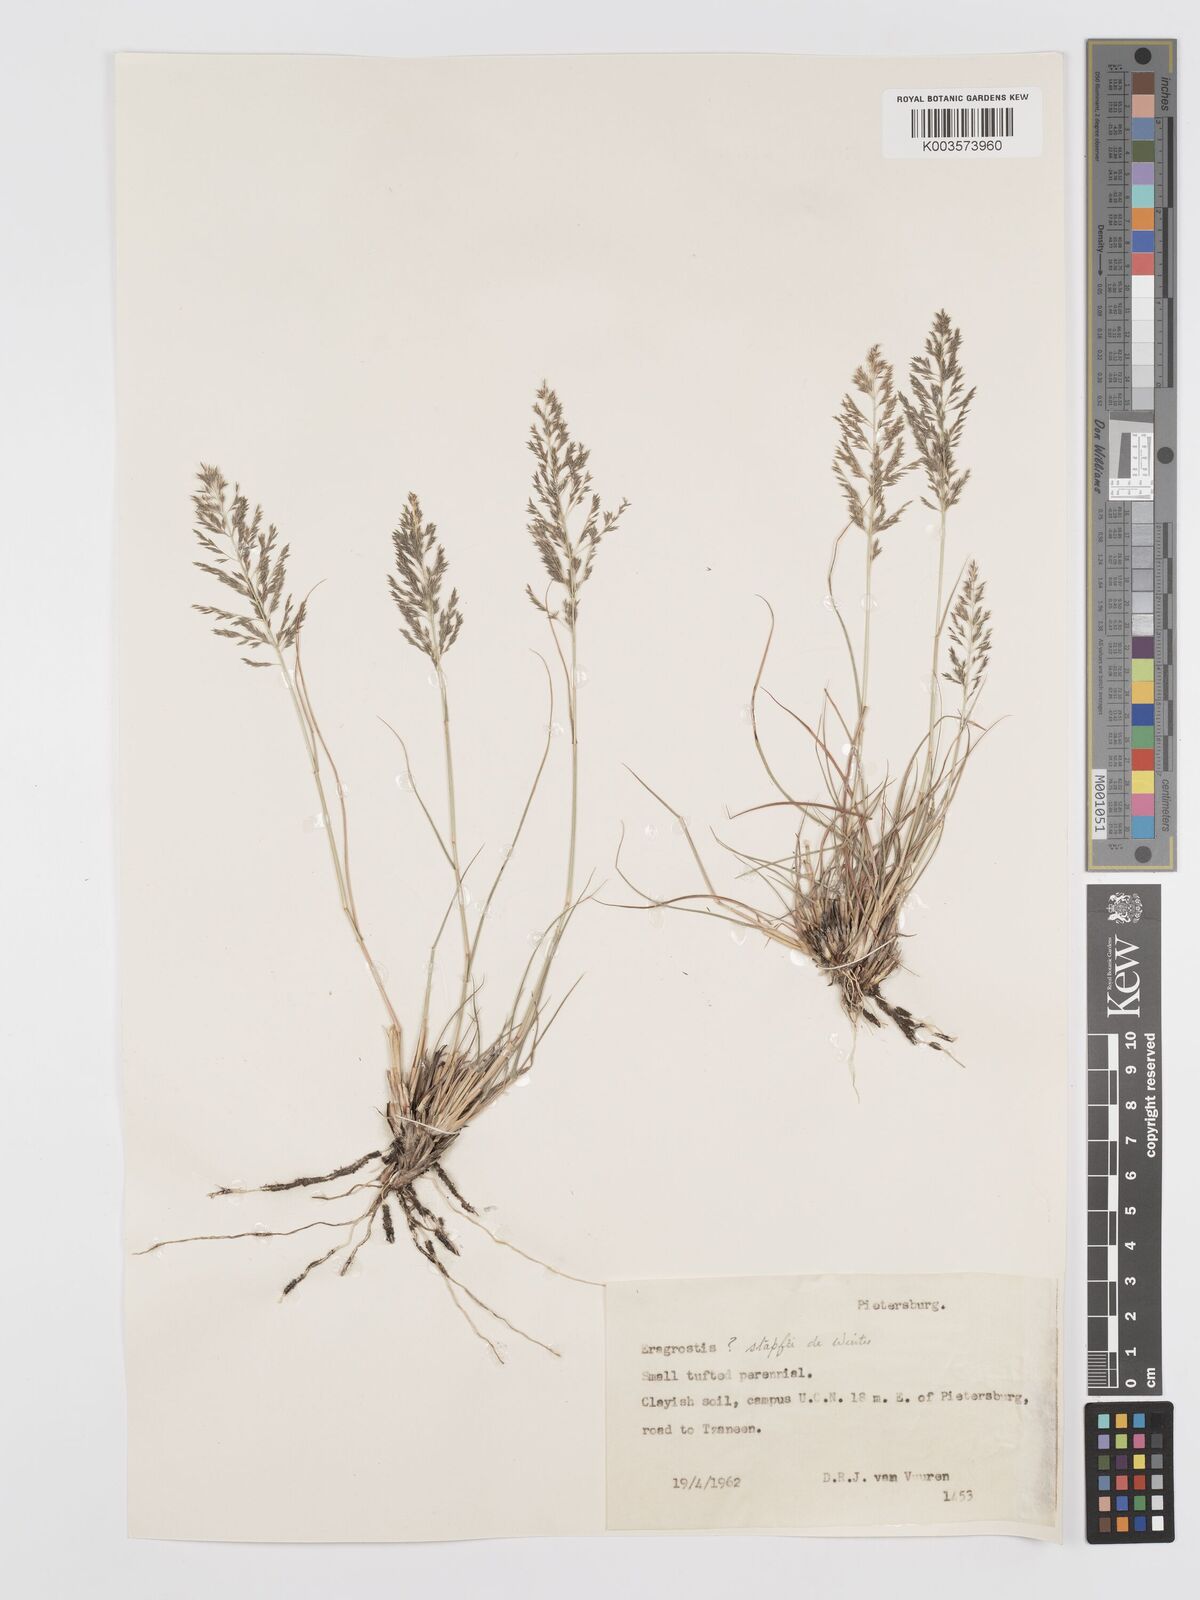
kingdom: Plantae
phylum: Tracheophyta
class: Liliopsida
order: Poales
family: Poaceae
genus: Eragrostis
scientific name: Eragrostis stapfii
